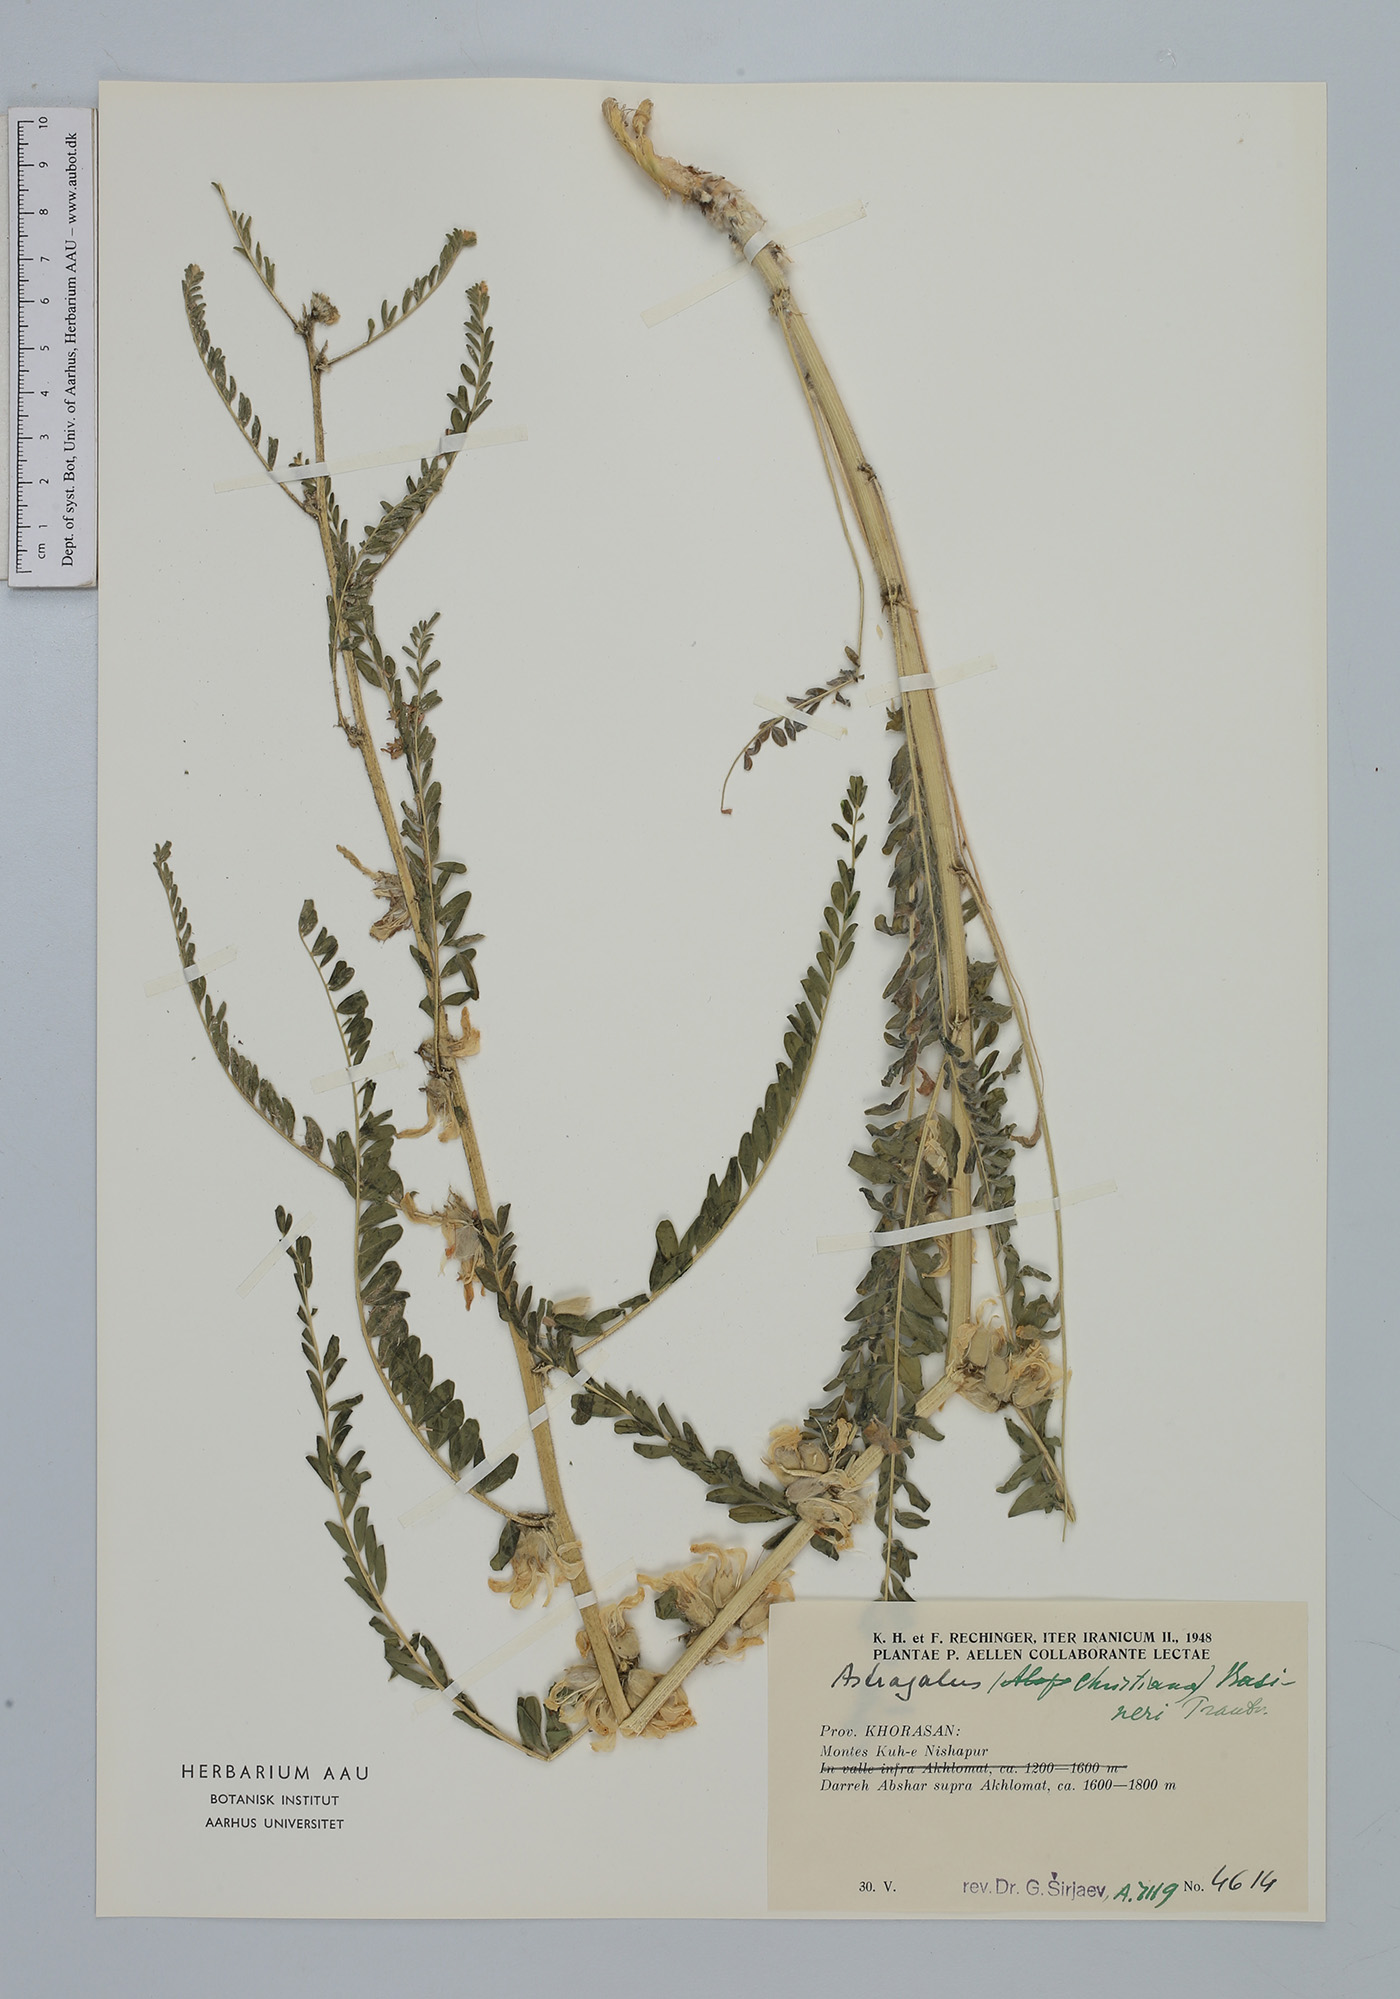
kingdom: Plantae
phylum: Tracheophyta
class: Magnoliopsida
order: Fabales
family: Fabaceae
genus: Astragalus
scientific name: Astragalus basineri
